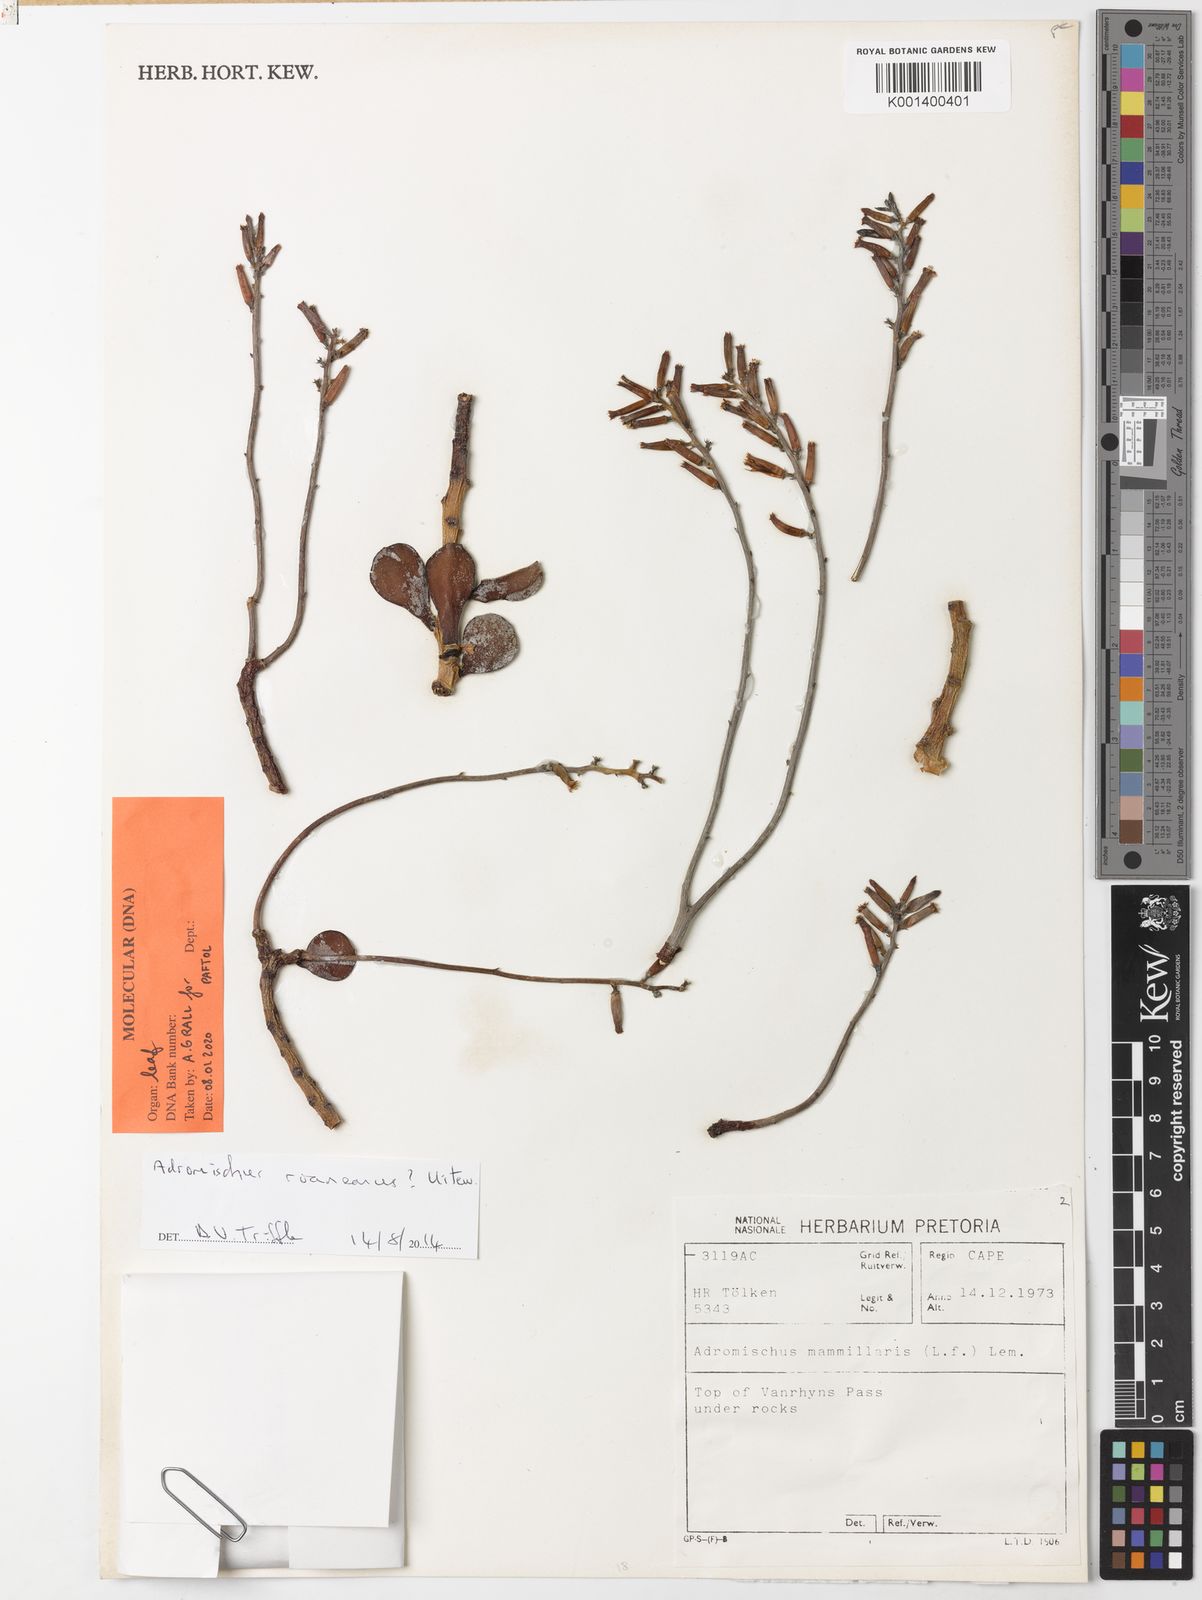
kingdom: Plantae
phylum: Tracheophyta
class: Magnoliopsida
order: Saxifragales
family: Crassulaceae
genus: Adromischus
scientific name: Adromischus roaneanus
